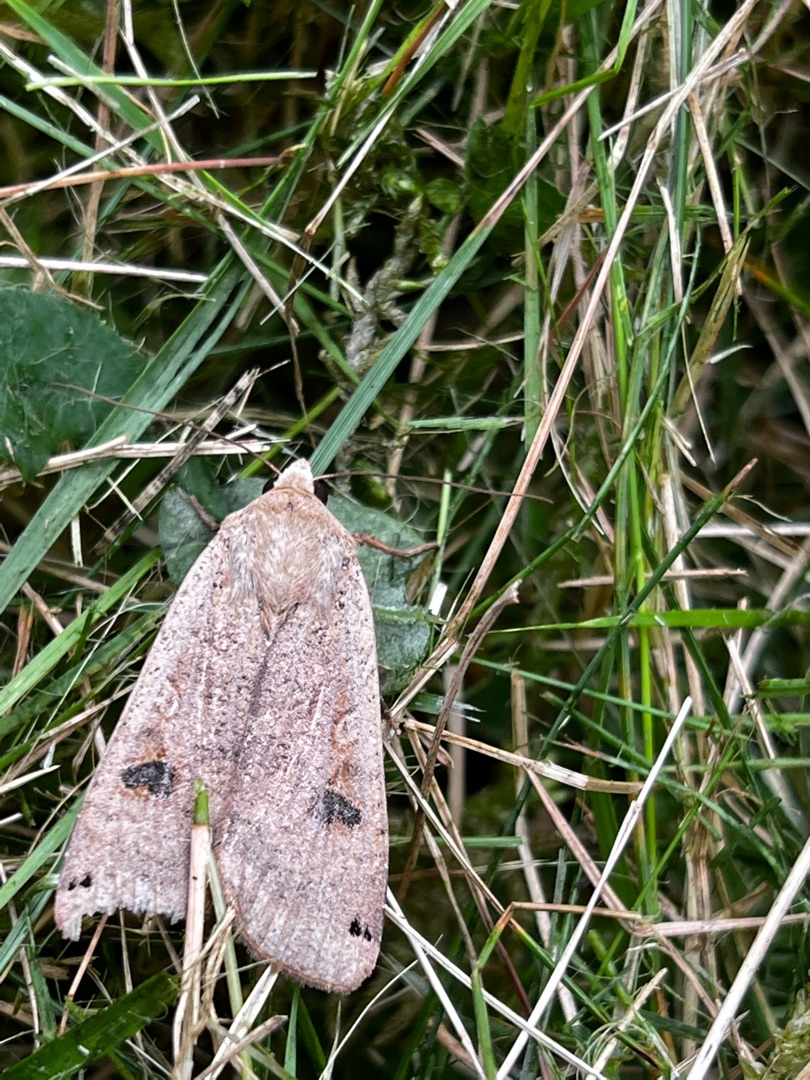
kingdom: Animalia
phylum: Arthropoda
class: Insecta
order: Lepidoptera
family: Noctuidae
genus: Noctua
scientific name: Noctua pronuba
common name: Stor smutugle
